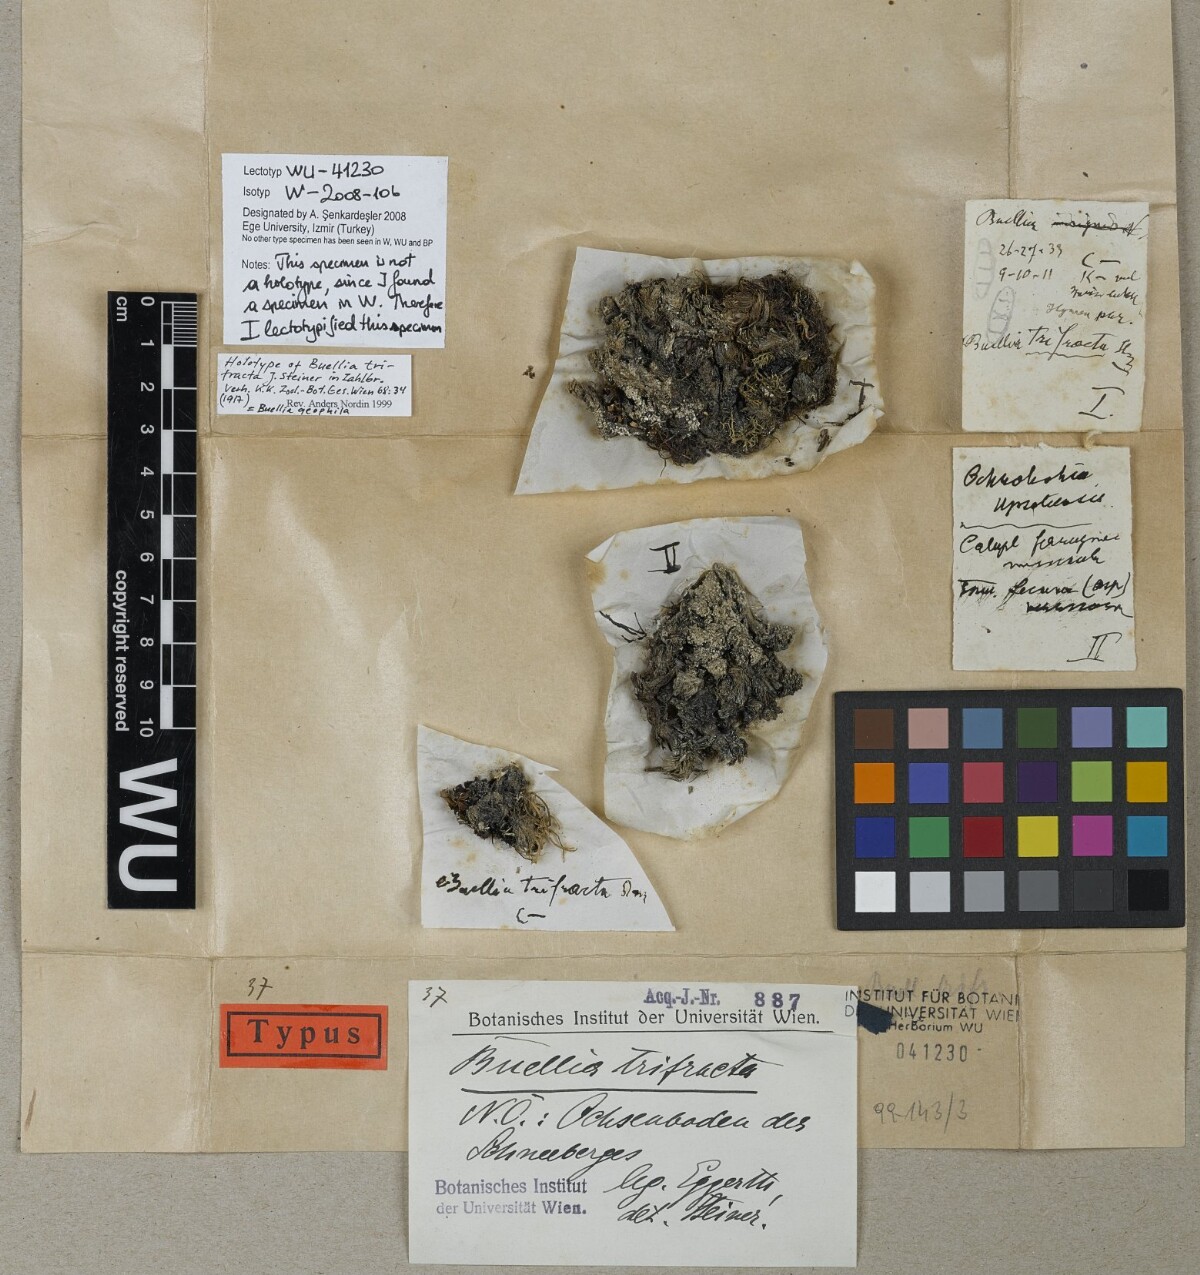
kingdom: Fungi
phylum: Ascomycota
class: Lecanoromycetes
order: Caliciales
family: Caliciaceae
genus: Buellia
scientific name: Buellia geophila
